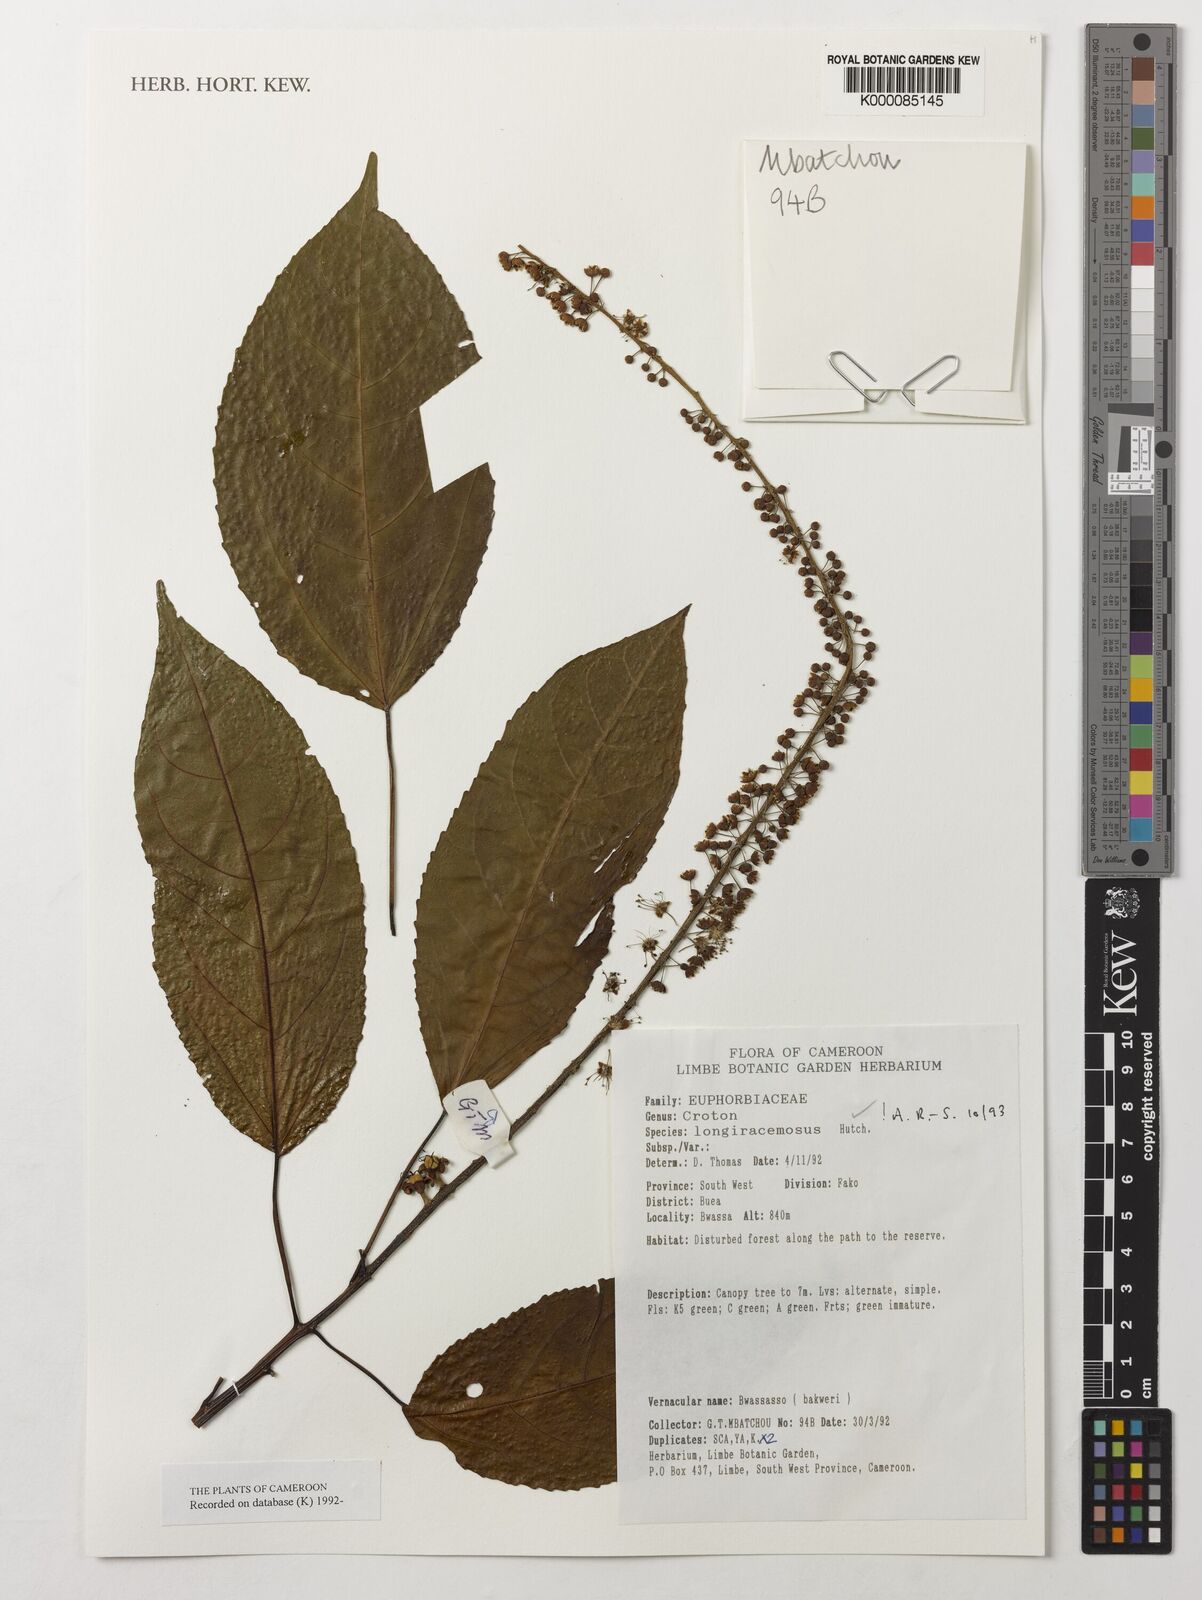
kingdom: Plantae
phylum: Tracheophyta
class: Magnoliopsida
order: Malpighiales
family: Euphorbiaceae
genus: Croton
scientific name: Croton longiracemosus
